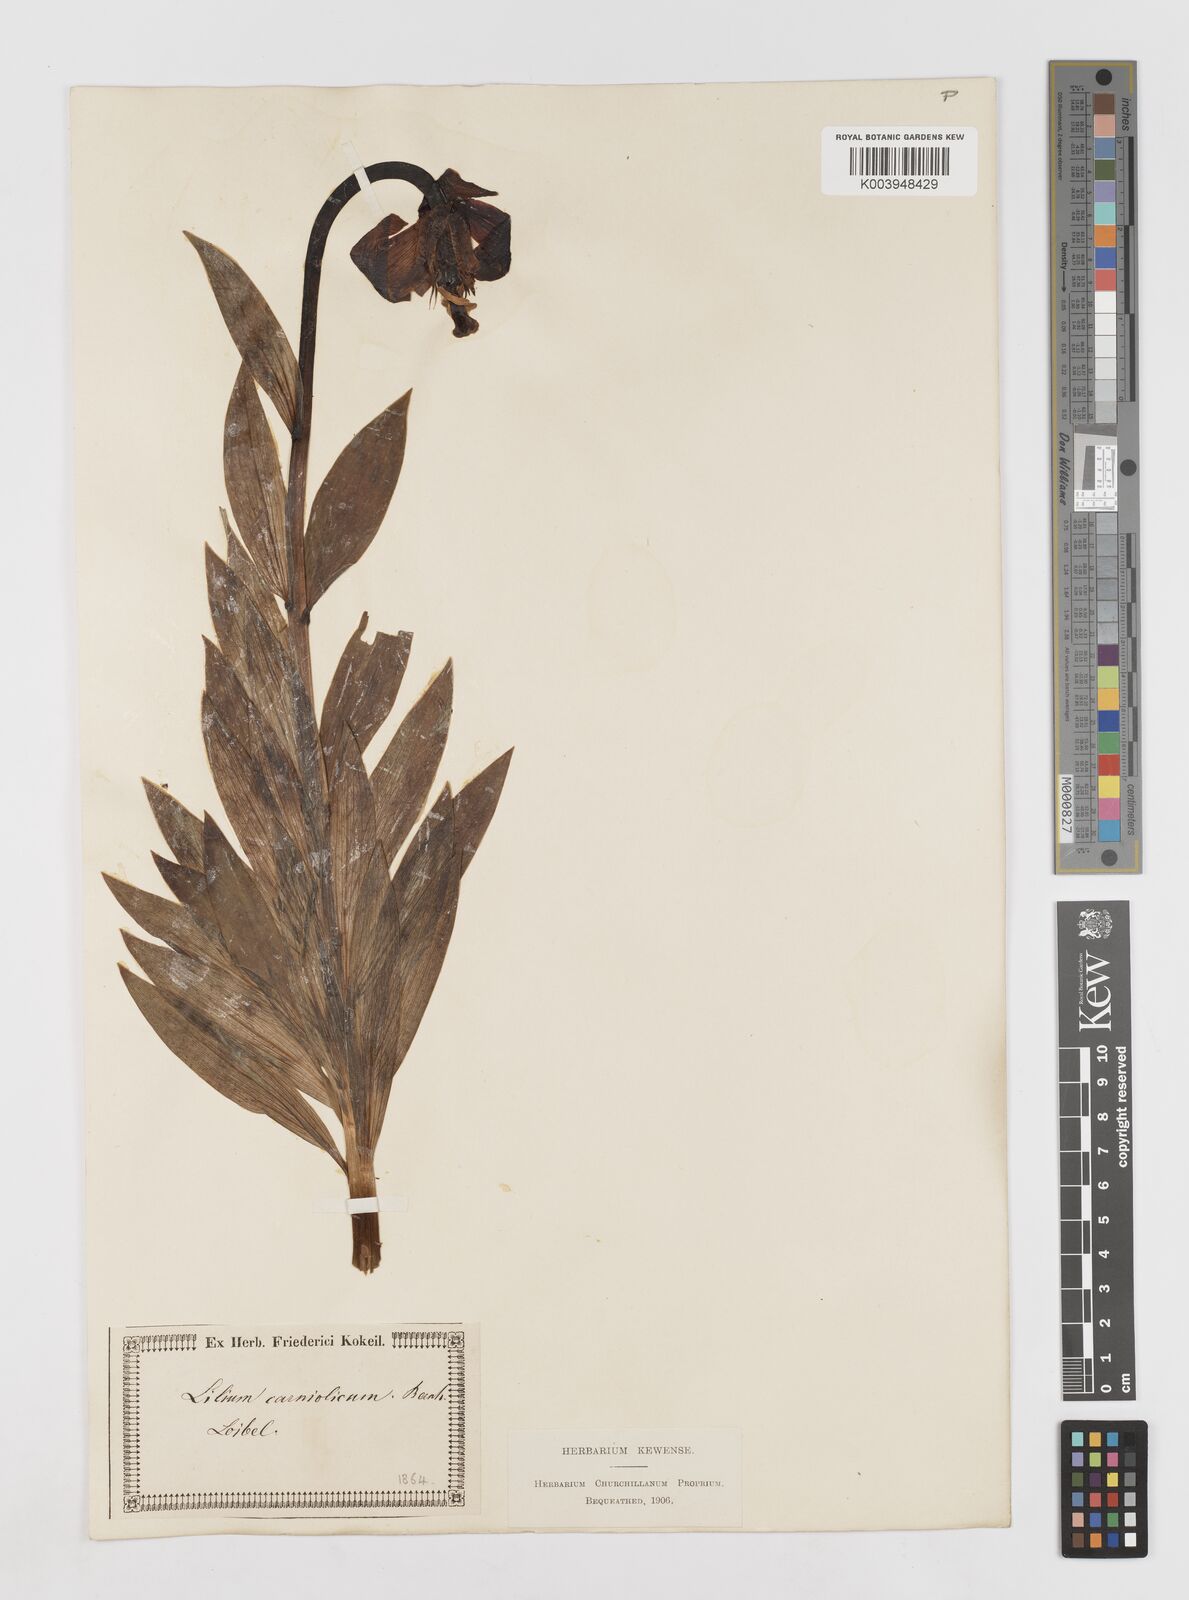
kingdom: Plantae
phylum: Tracheophyta
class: Liliopsida
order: Liliales
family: Liliaceae
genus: Lilium
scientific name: Lilium carniolicum
